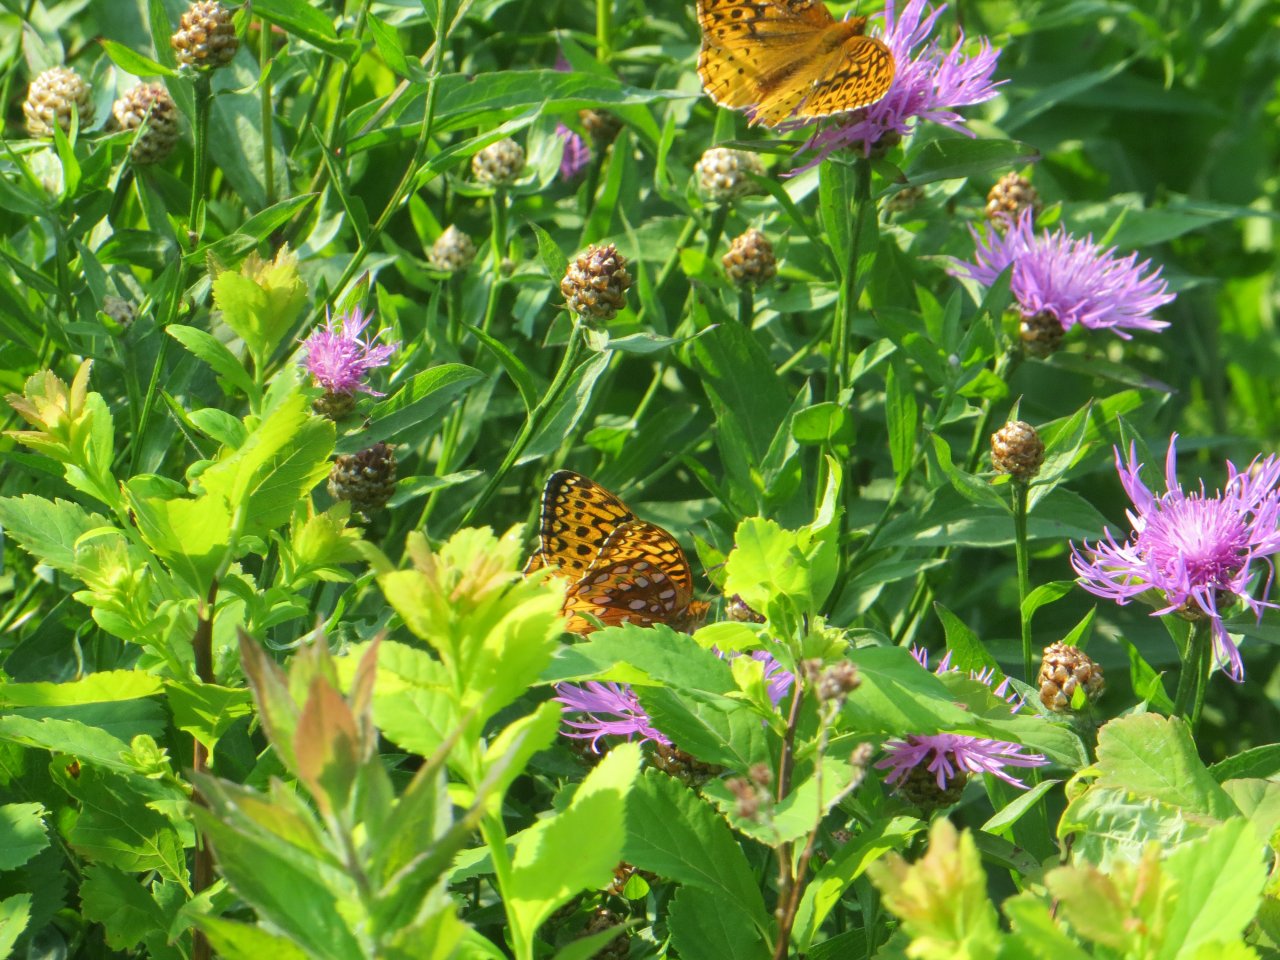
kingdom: Animalia
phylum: Arthropoda
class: Insecta
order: Lepidoptera
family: Nymphalidae
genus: Speyeria
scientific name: Speyeria aphrodite
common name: Aphrodite Fritillary
